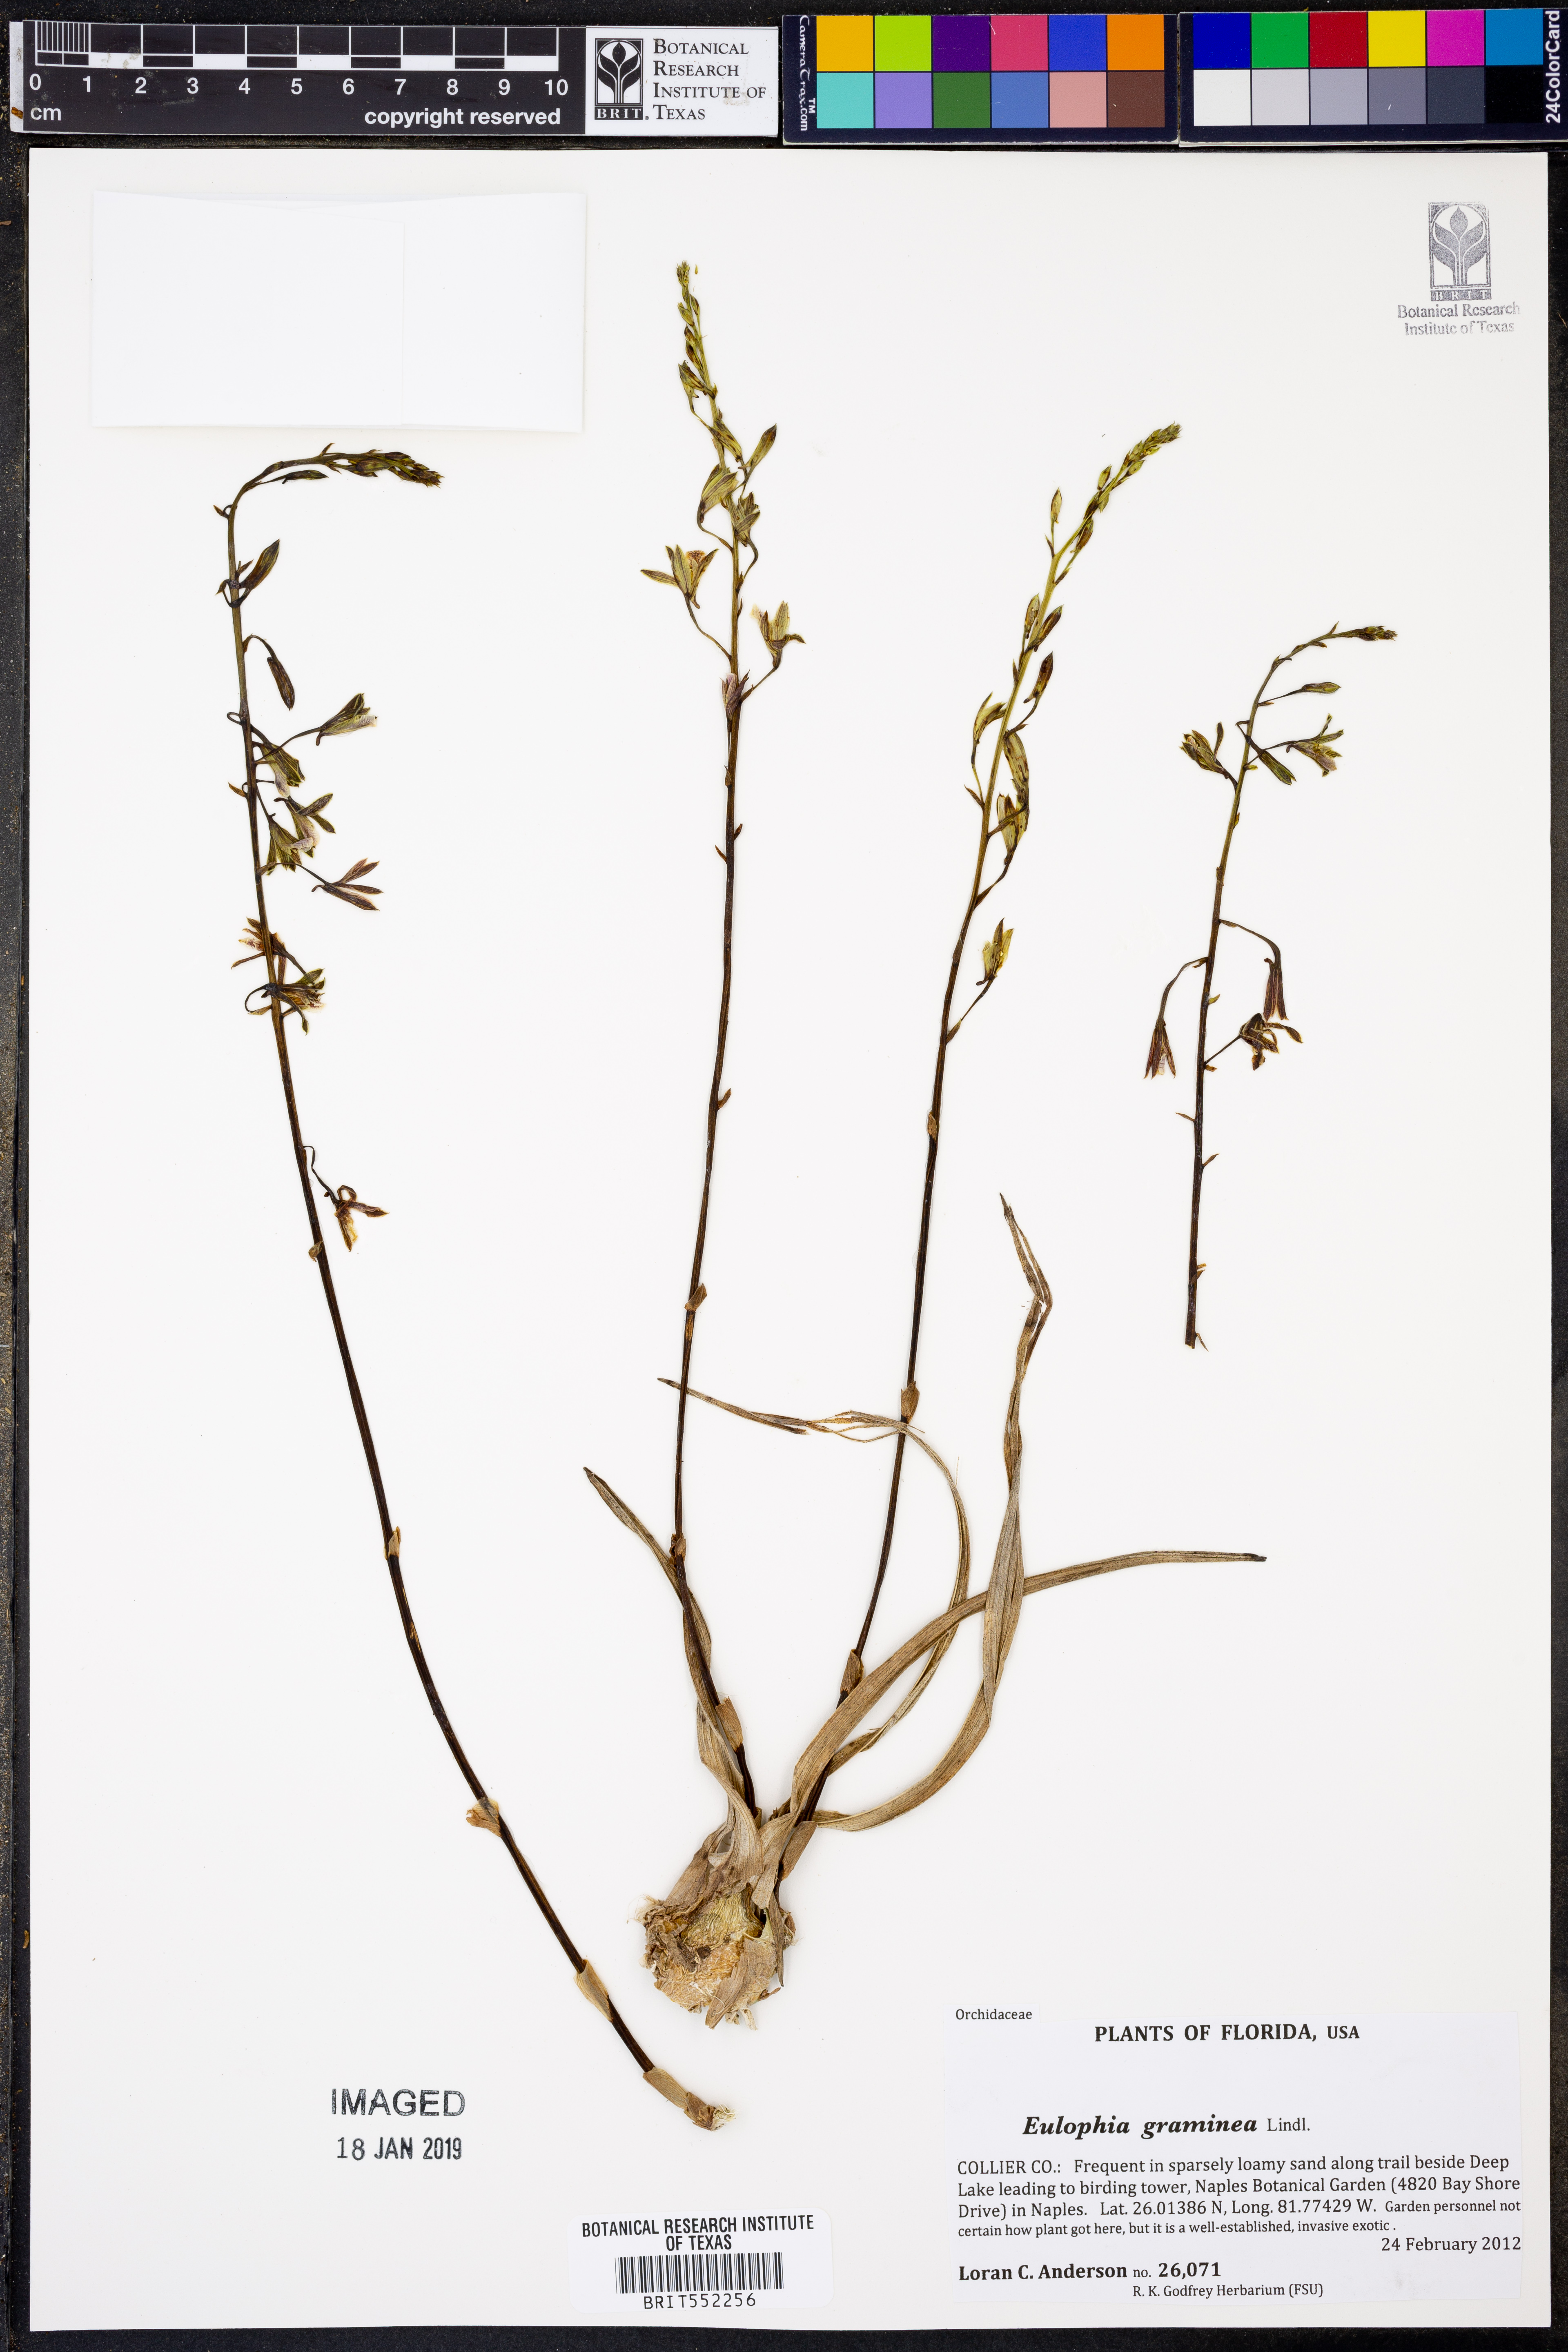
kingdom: Plantae
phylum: Tracheophyta
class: Liliopsida
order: Asparagales
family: Orchidaceae
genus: Eulophia
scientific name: Eulophia graminea
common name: Orchid
